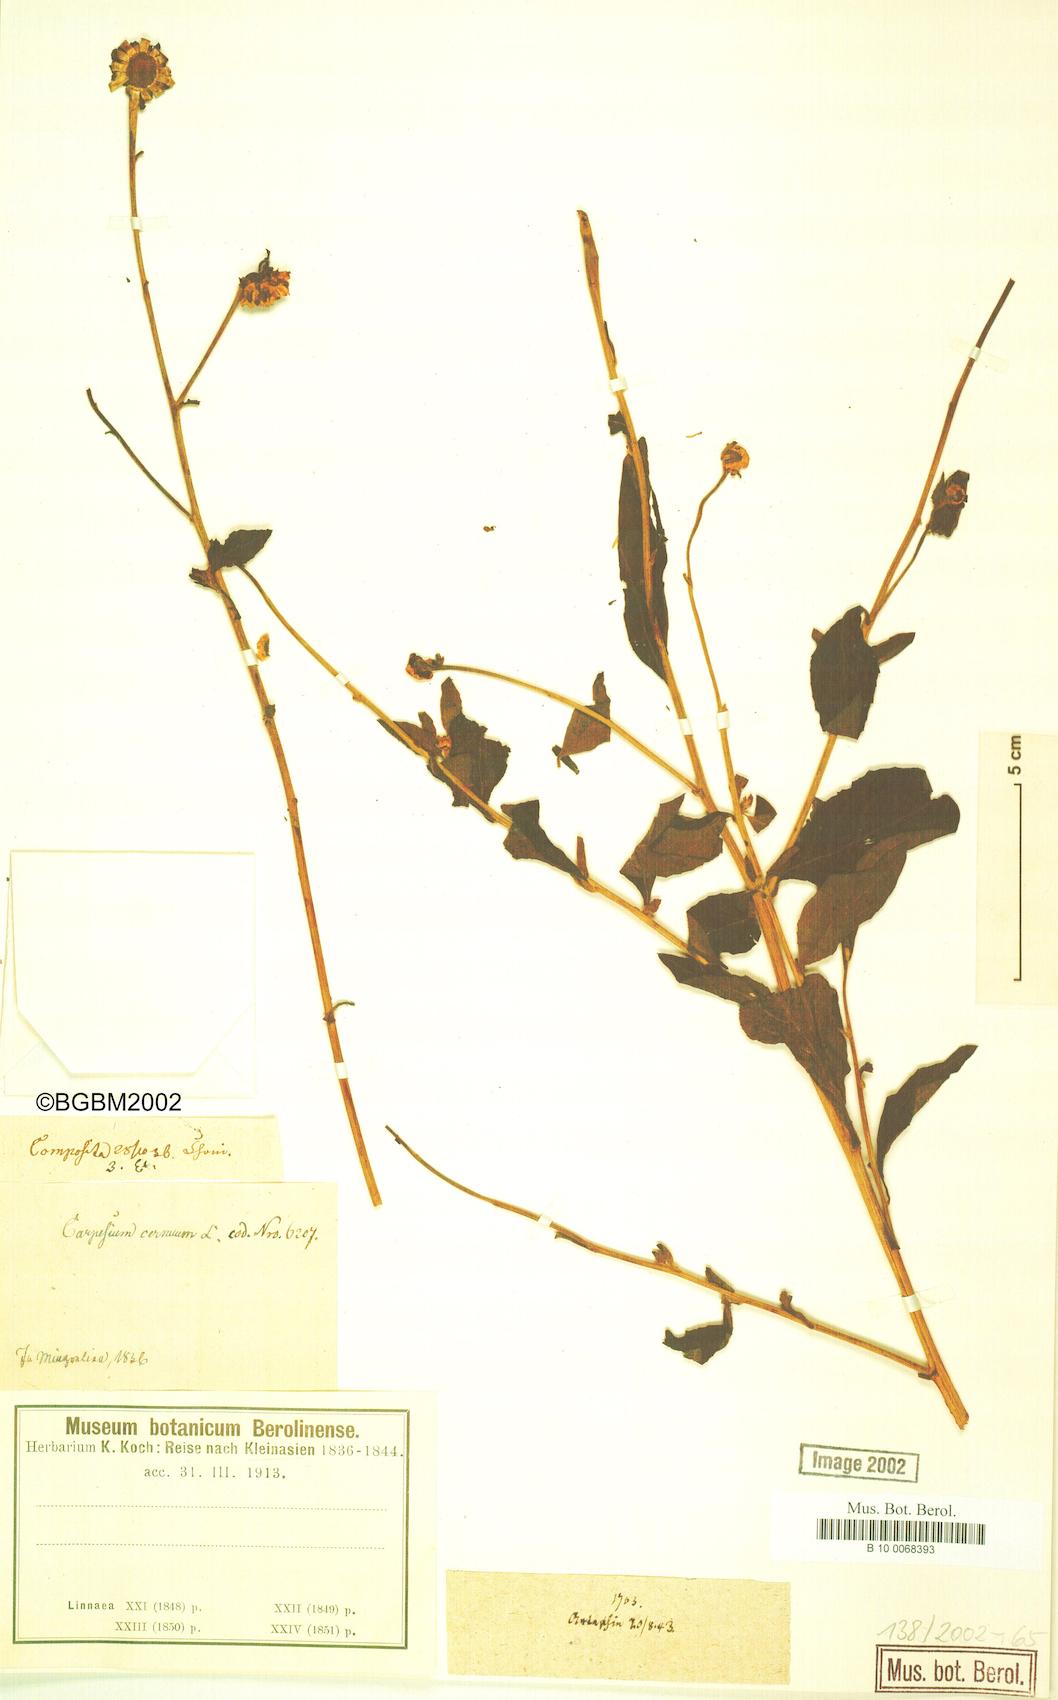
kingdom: Plantae
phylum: Tracheophyta
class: Magnoliopsida
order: Asterales
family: Asteraceae
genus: Carpesium
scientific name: Carpesium cernuum
